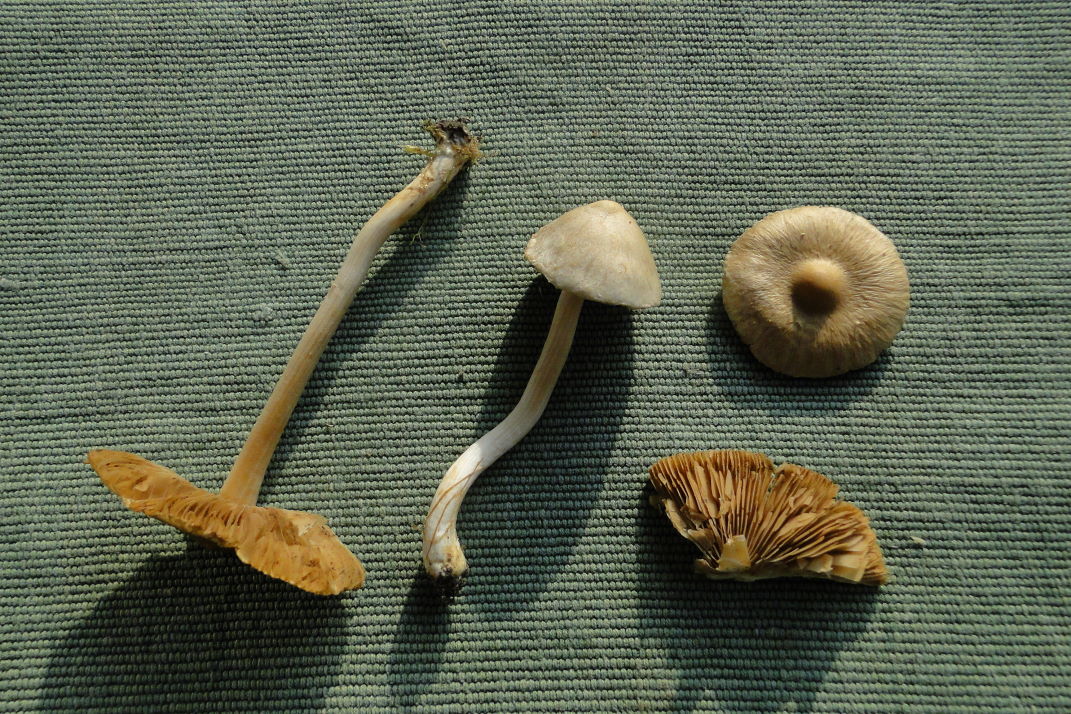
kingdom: Fungi
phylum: Basidiomycota
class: Agaricomycetes
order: Agaricales
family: Inocybaceae
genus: Inocybe
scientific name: Inocybe sindonia
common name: bleg trævlhat
